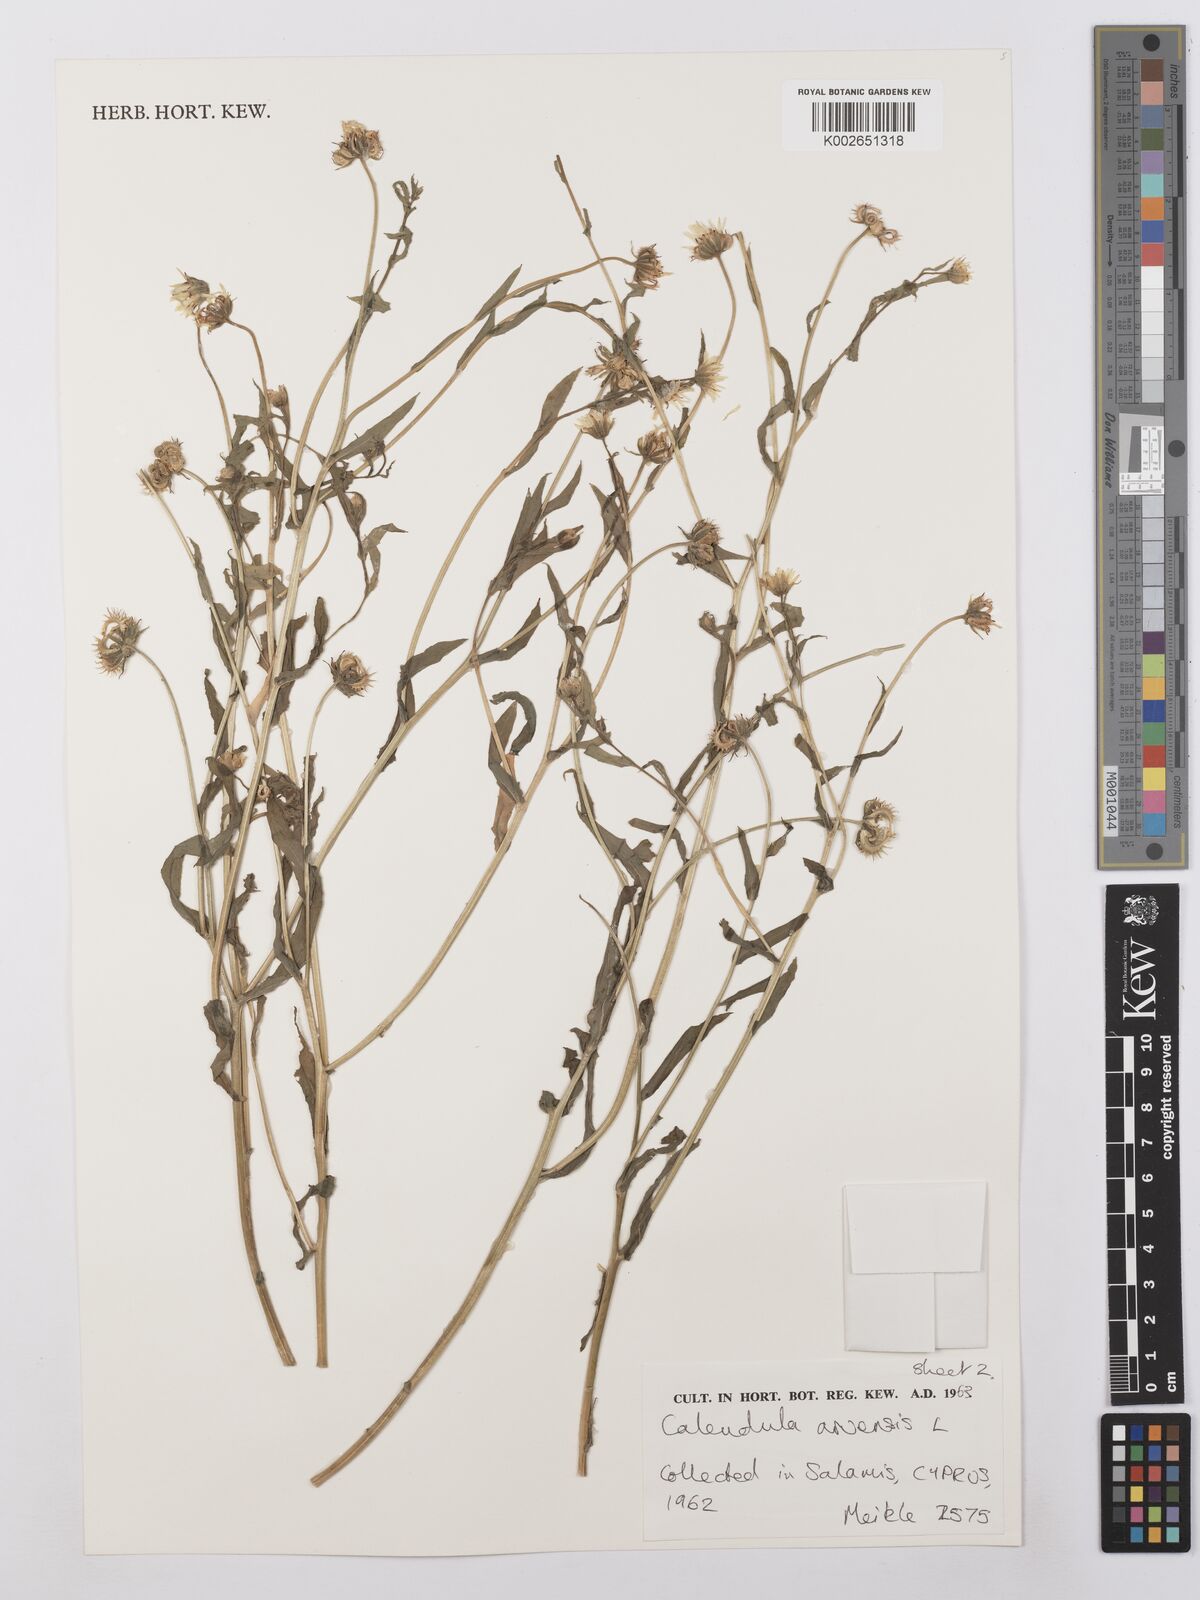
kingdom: Plantae
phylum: Tracheophyta
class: Magnoliopsida
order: Asterales
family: Asteraceae
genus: Calendula
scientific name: Calendula arvensis
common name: Field marigold
